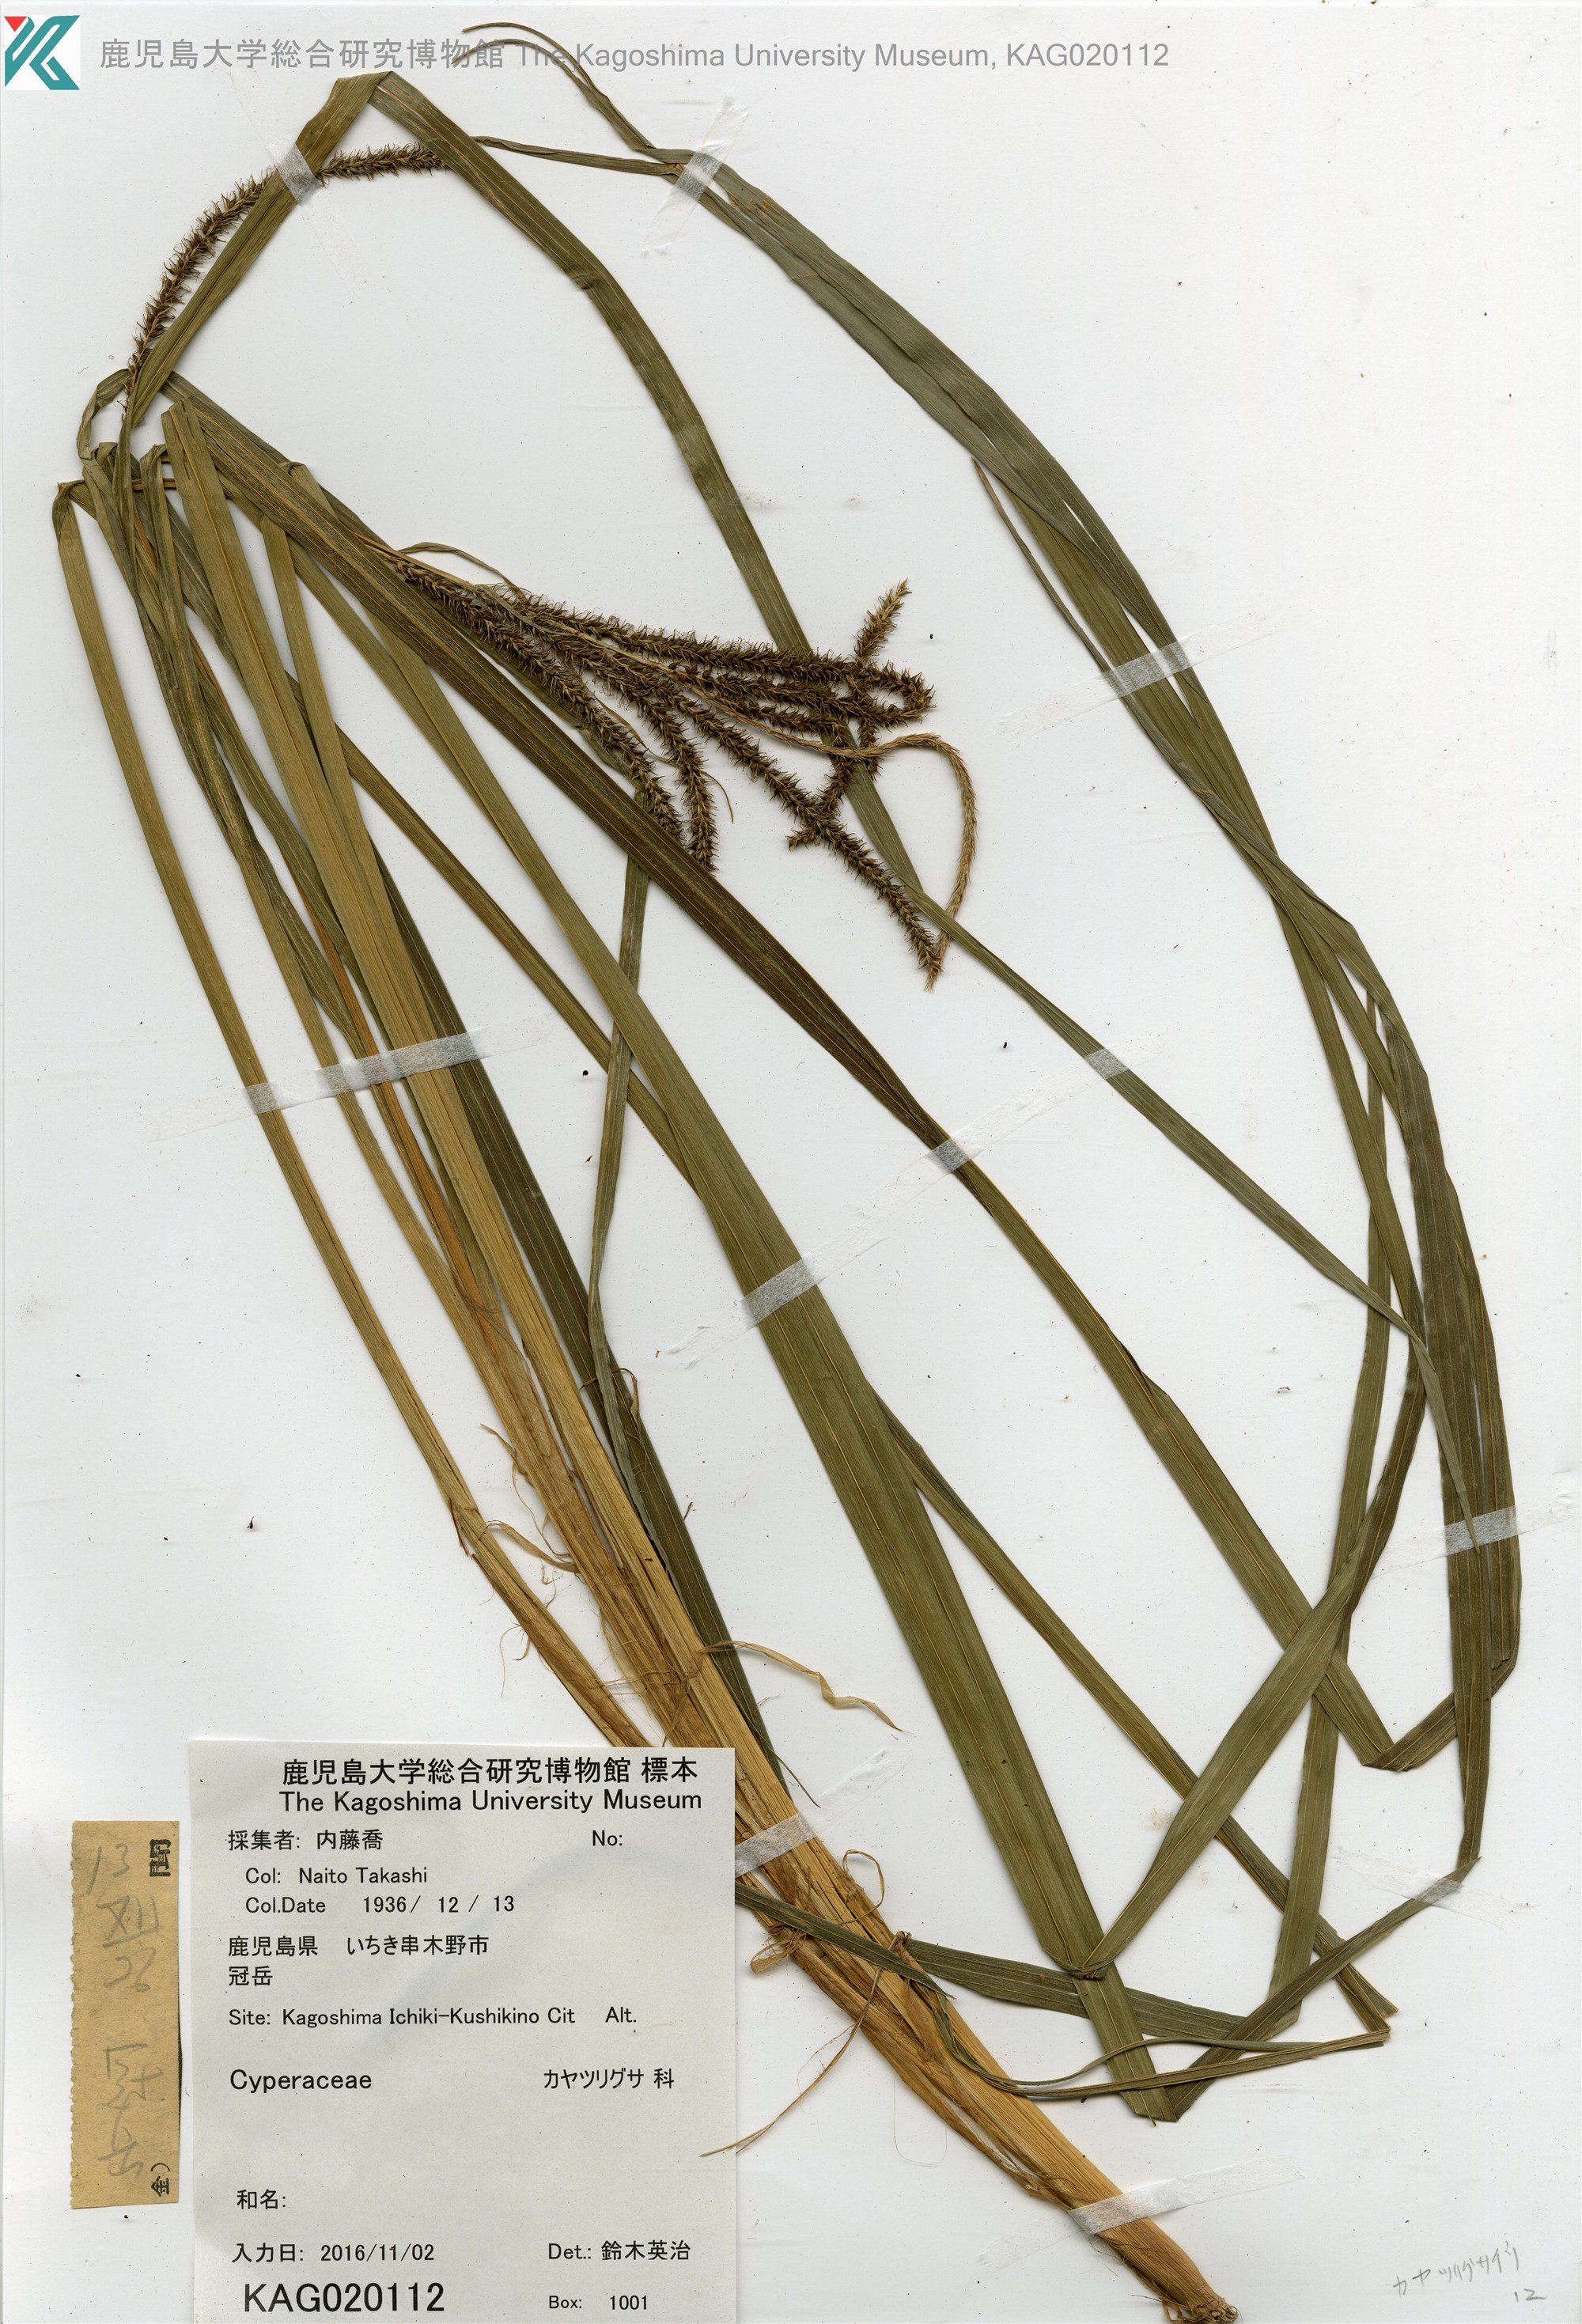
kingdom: Plantae
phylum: Tracheophyta
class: Liliopsida
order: Poales
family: Cyperaceae
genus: Carex
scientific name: Carex
